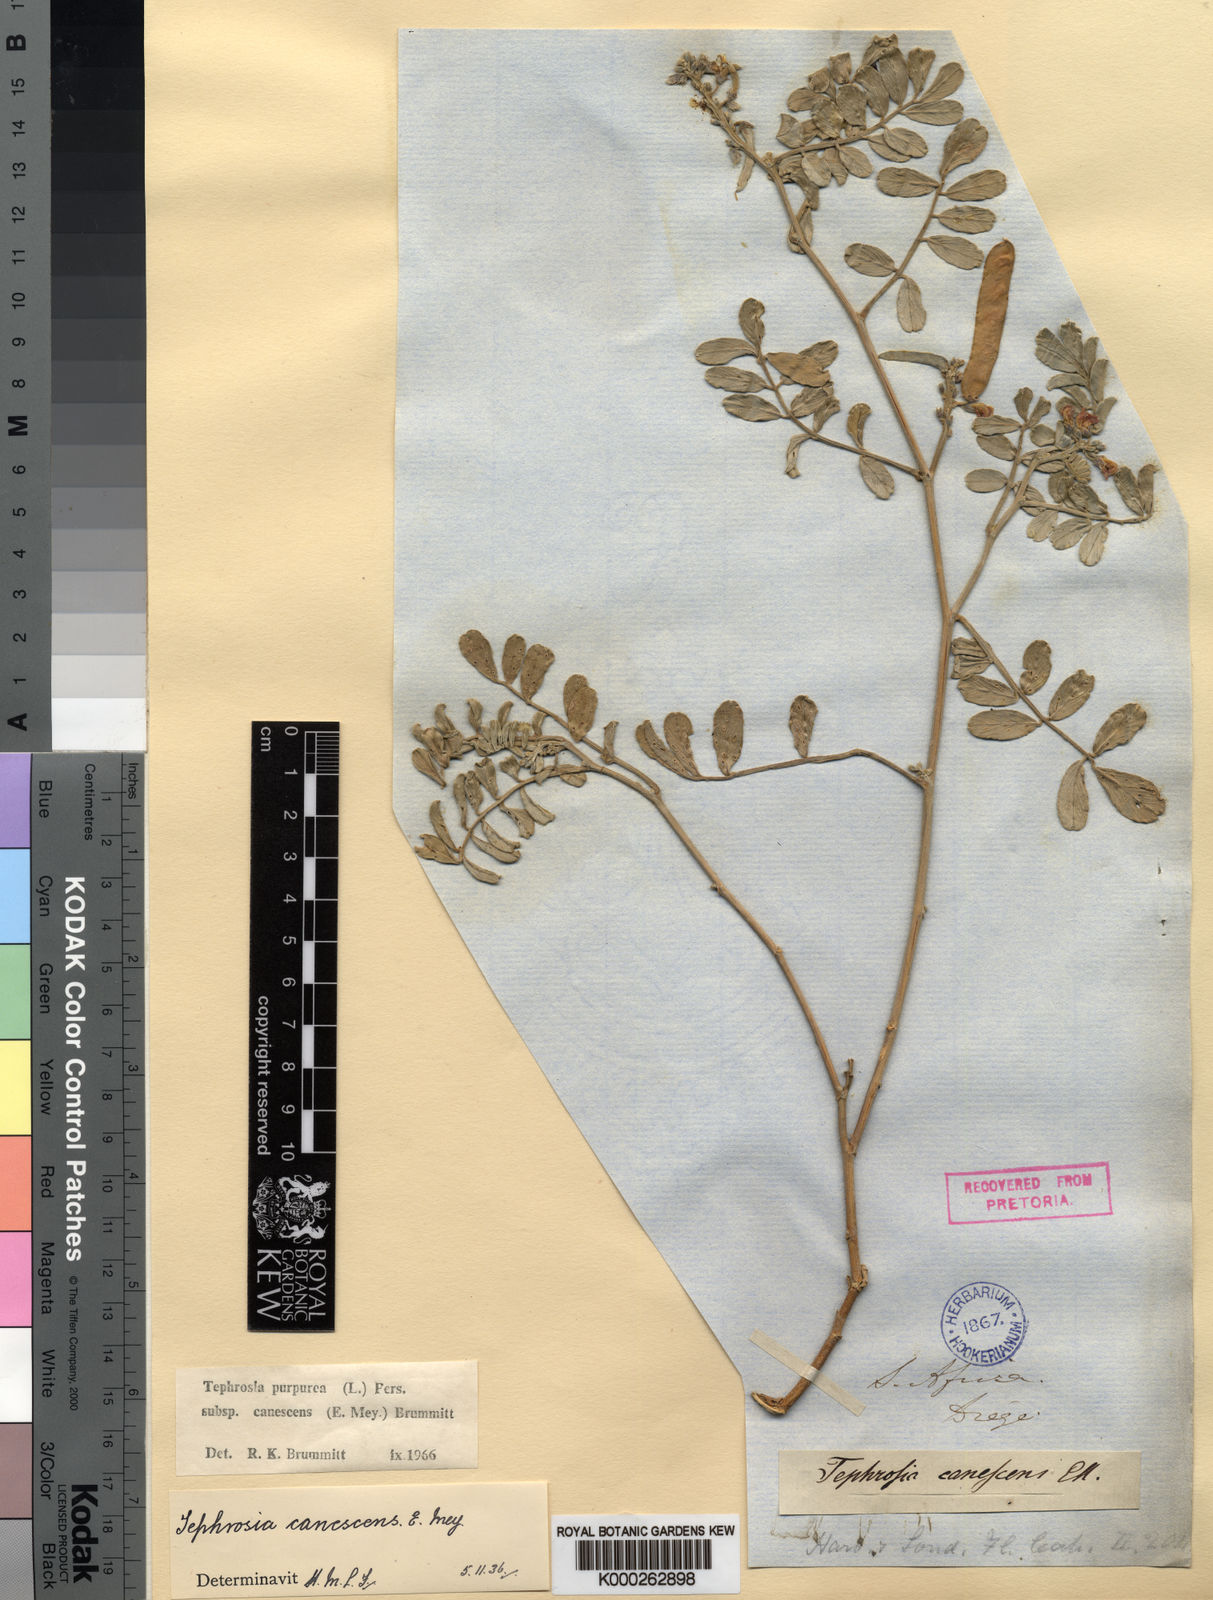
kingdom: Plantae
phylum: Tracheophyta
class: Magnoliopsida
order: Fabales
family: Fabaceae
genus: Tephrosia
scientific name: Tephrosia purpurea
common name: Fishpoison
